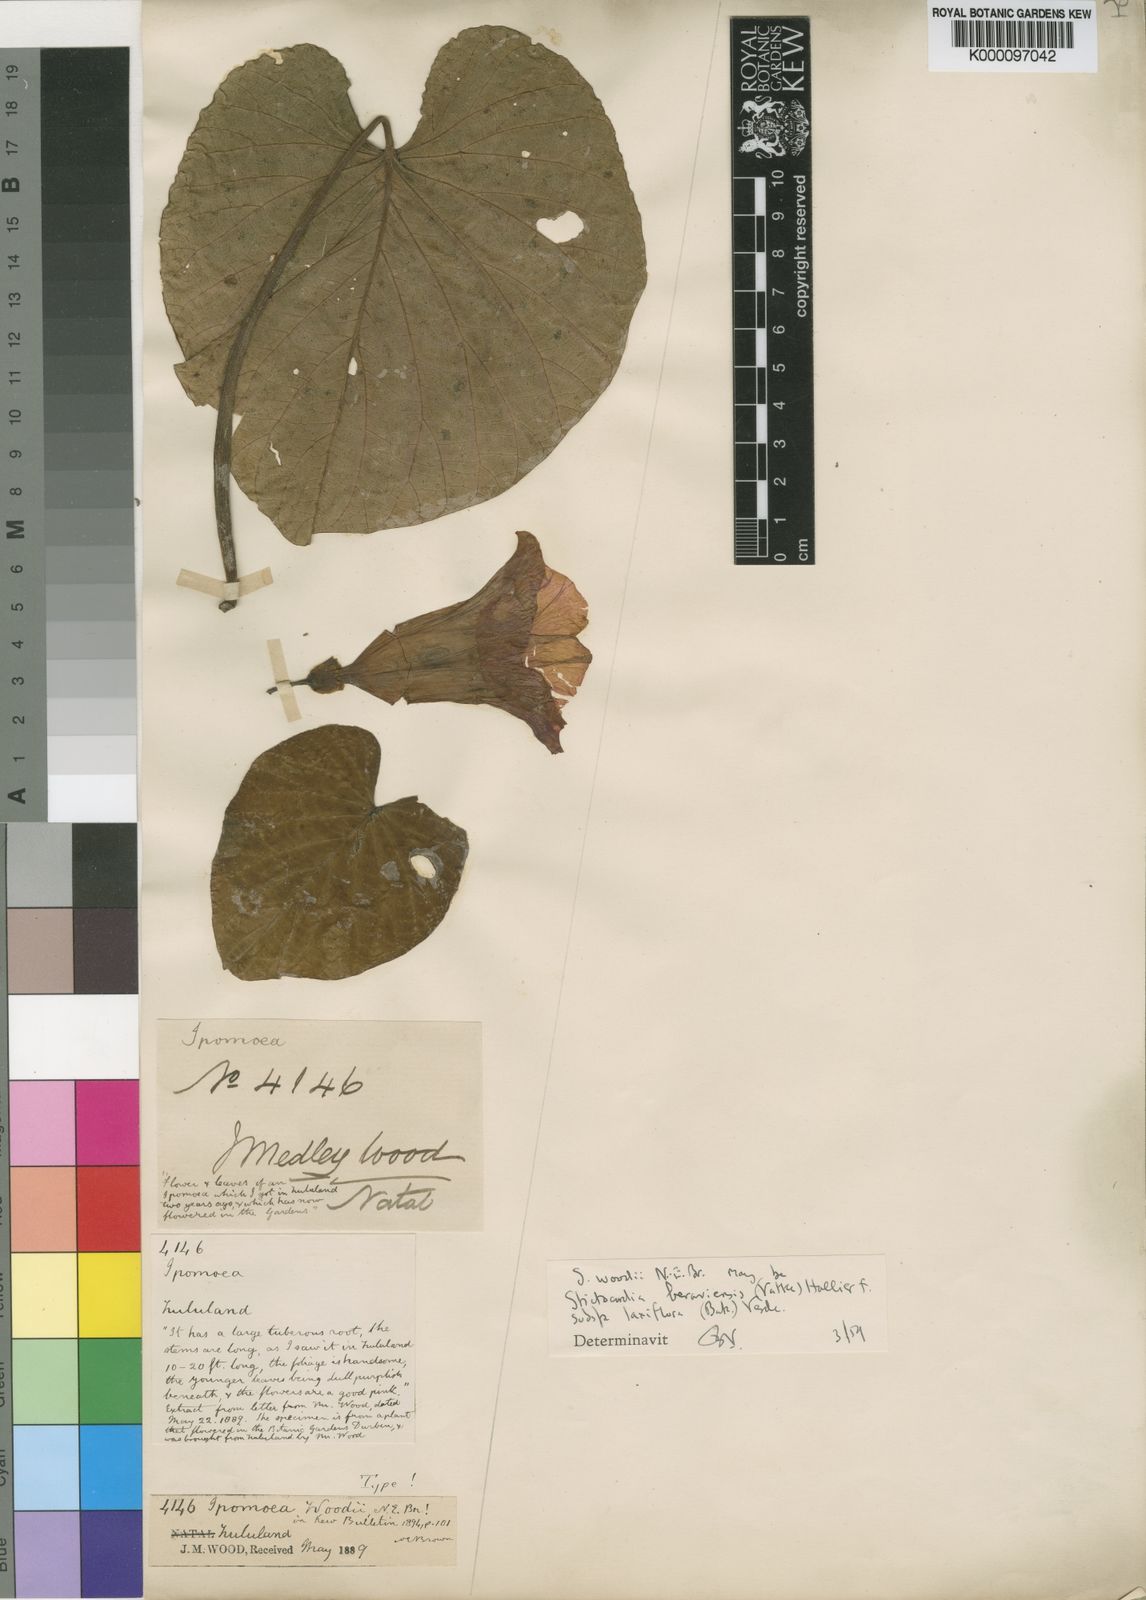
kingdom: Plantae
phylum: Tracheophyta
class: Magnoliopsida
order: Solanales
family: Convolvulaceae
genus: Stictocardia
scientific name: Stictocardia laxiflora
